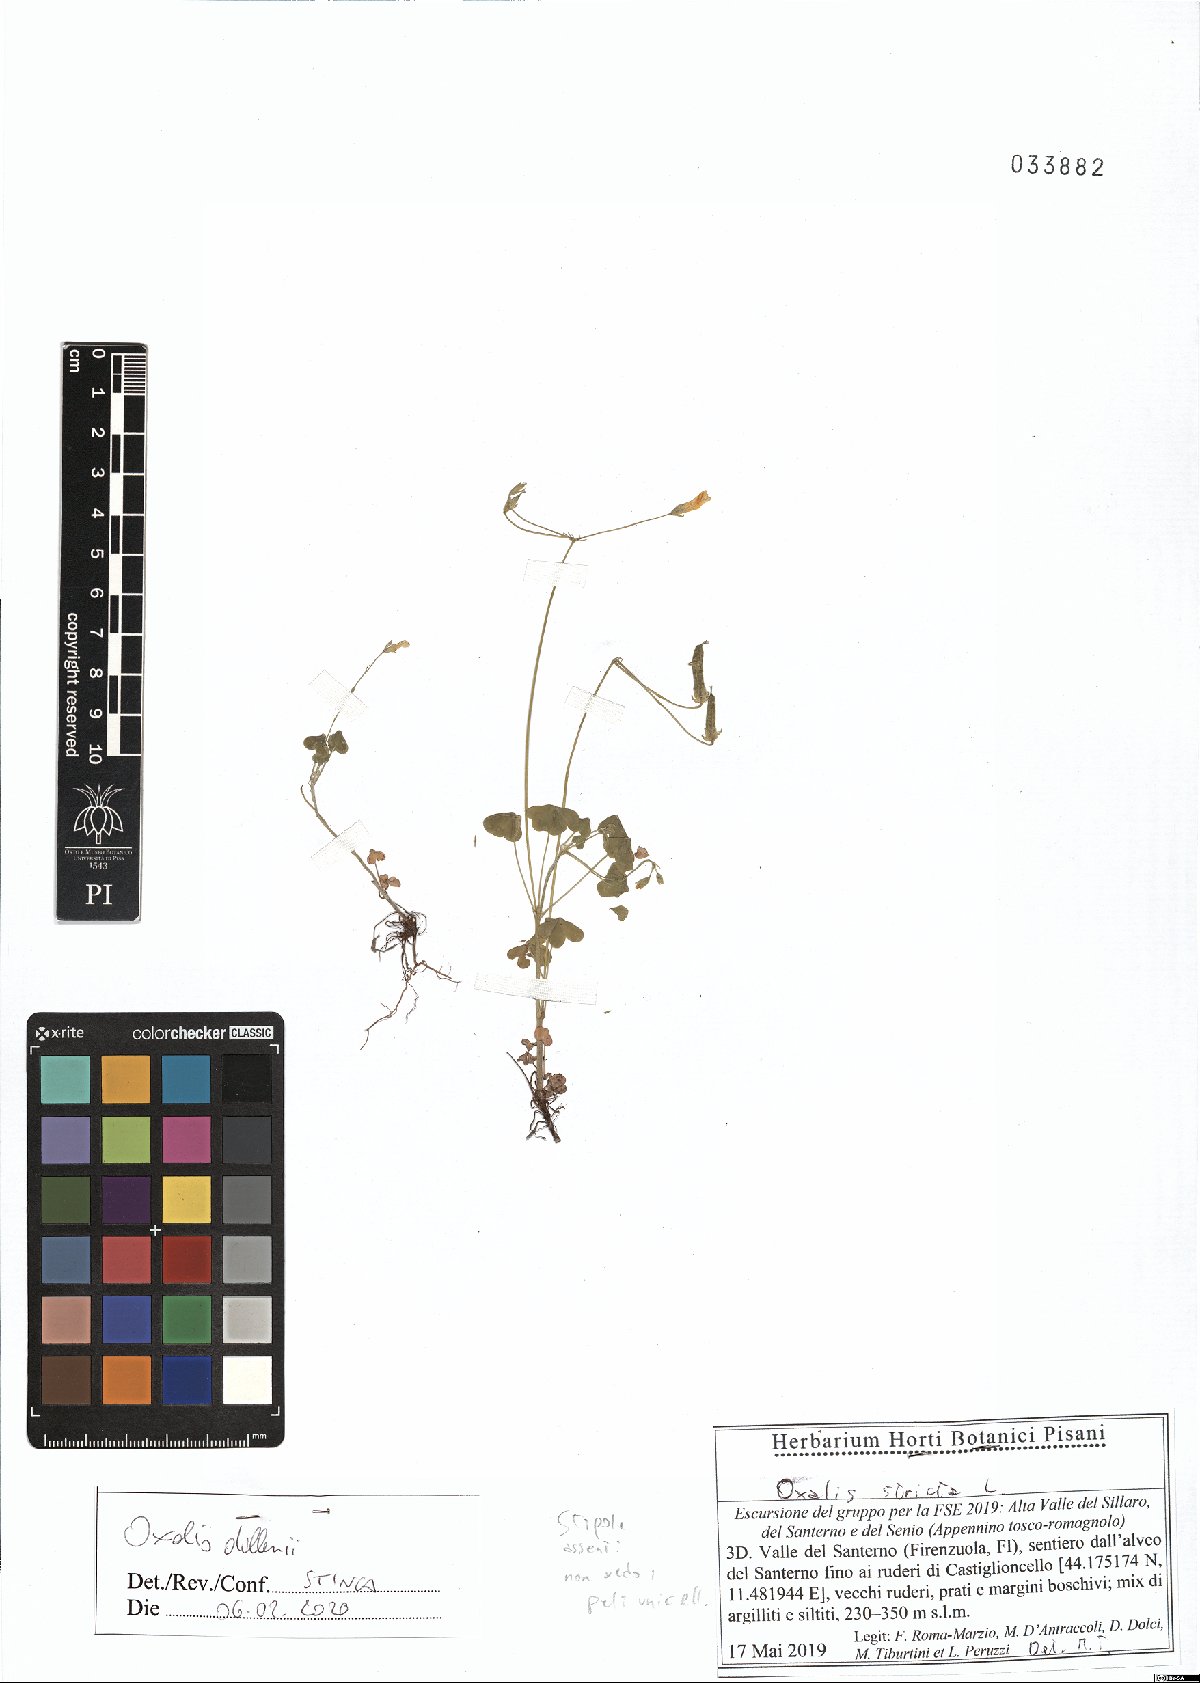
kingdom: Plantae
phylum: Tracheophyta
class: Magnoliopsida
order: Oxalidales
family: Oxalidaceae
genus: Oxalis
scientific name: Oxalis dillenii
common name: Sussex yellow-sorrel
